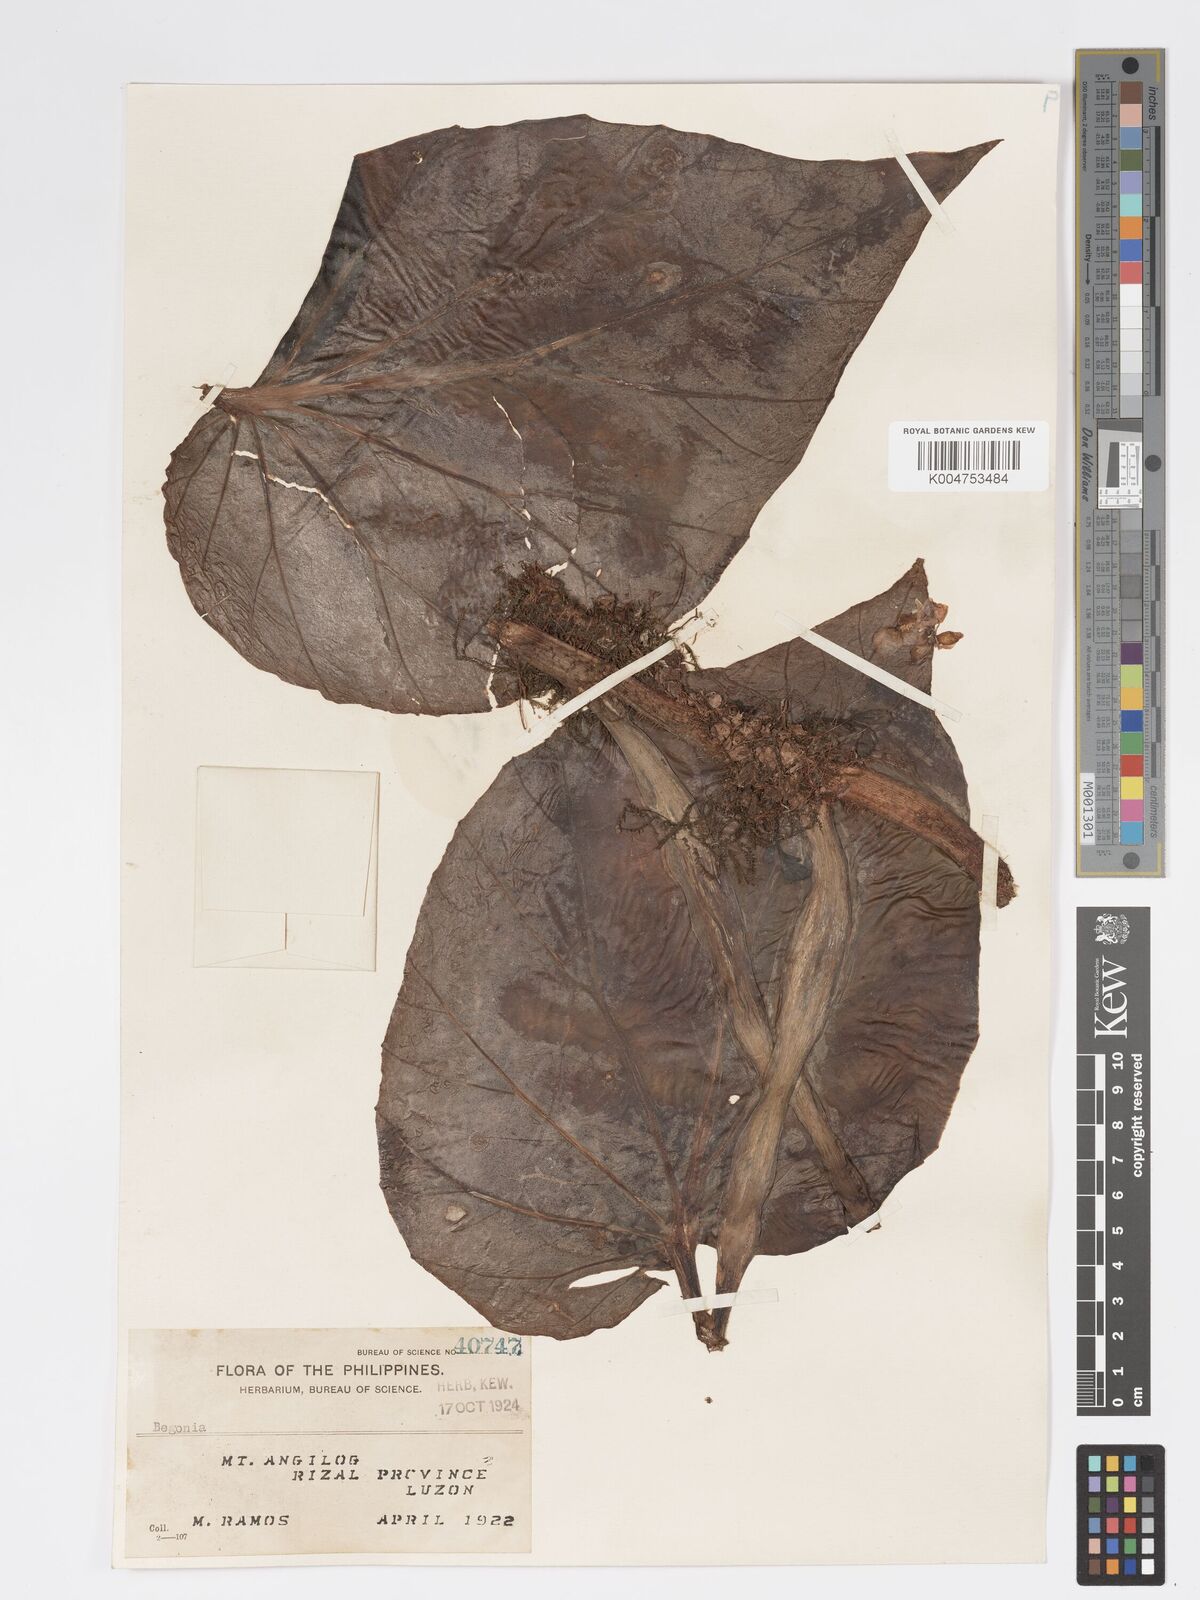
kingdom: Plantae
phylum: Tracheophyta
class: Magnoliopsida
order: Cucurbitales
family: Begoniaceae
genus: Begonia
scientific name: Begonia
